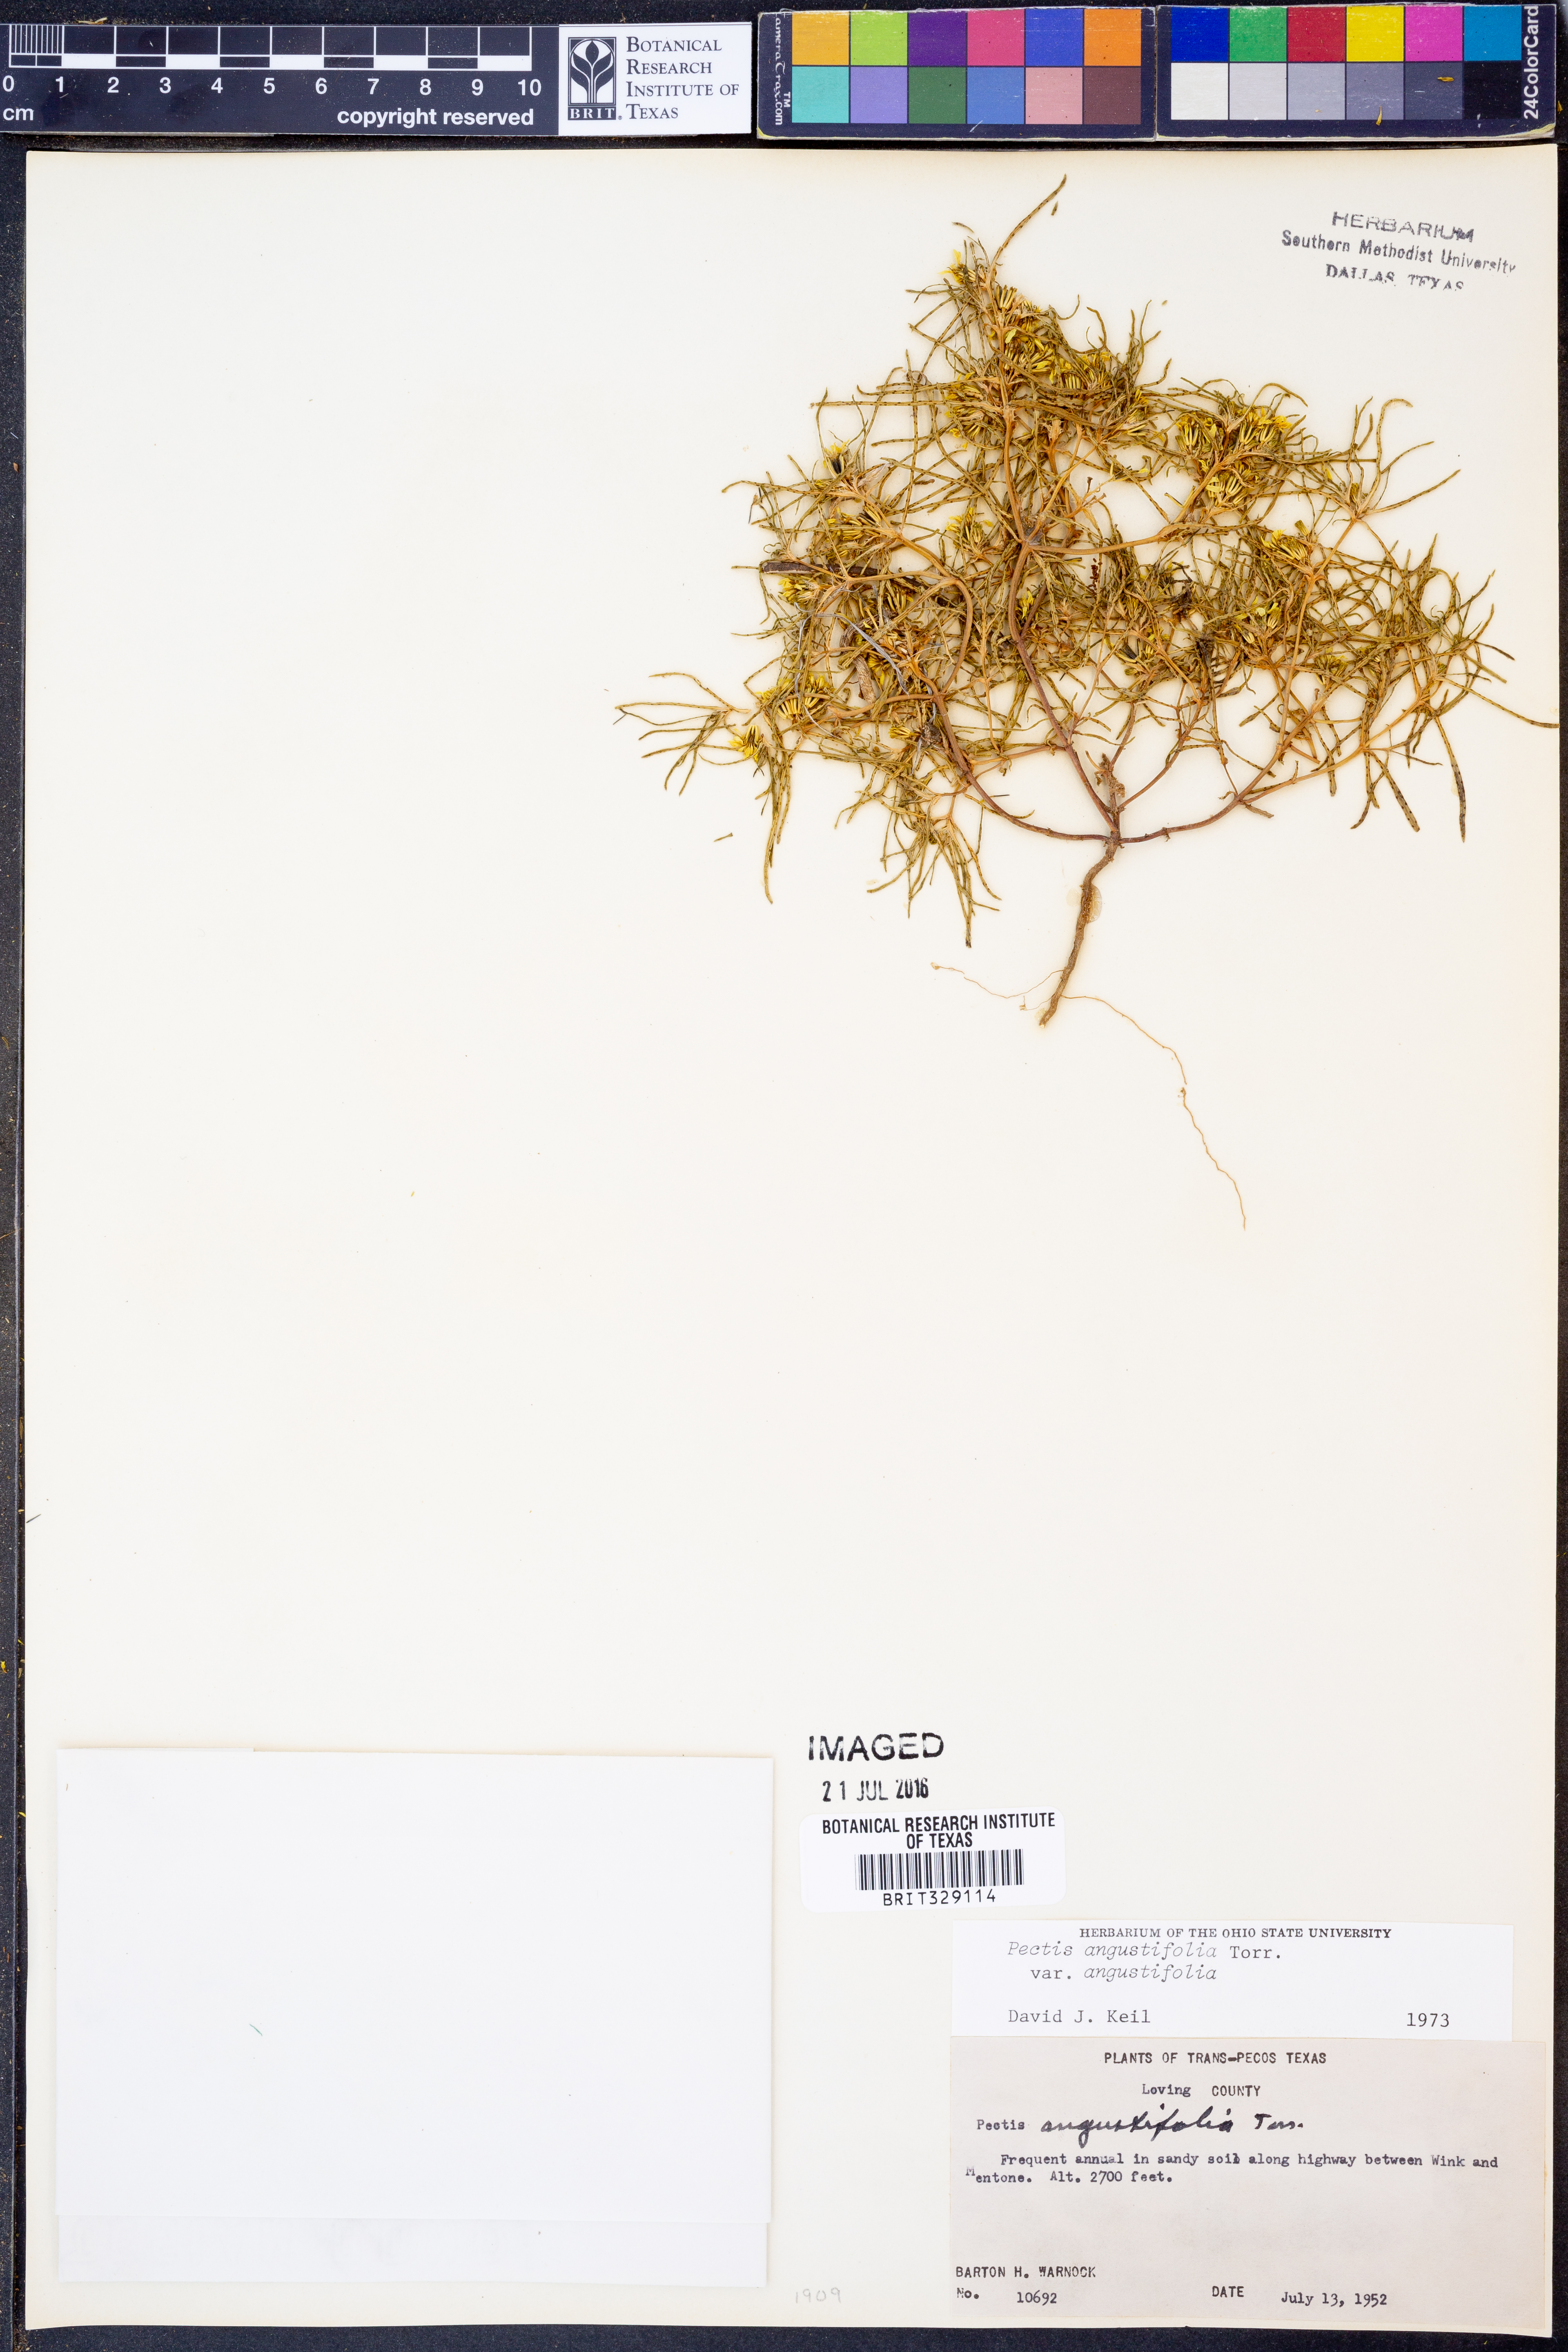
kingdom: Plantae
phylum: Tracheophyta
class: Magnoliopsida
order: Asterales
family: Asteraceae
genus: Pectis
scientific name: Pectis angustifolia
